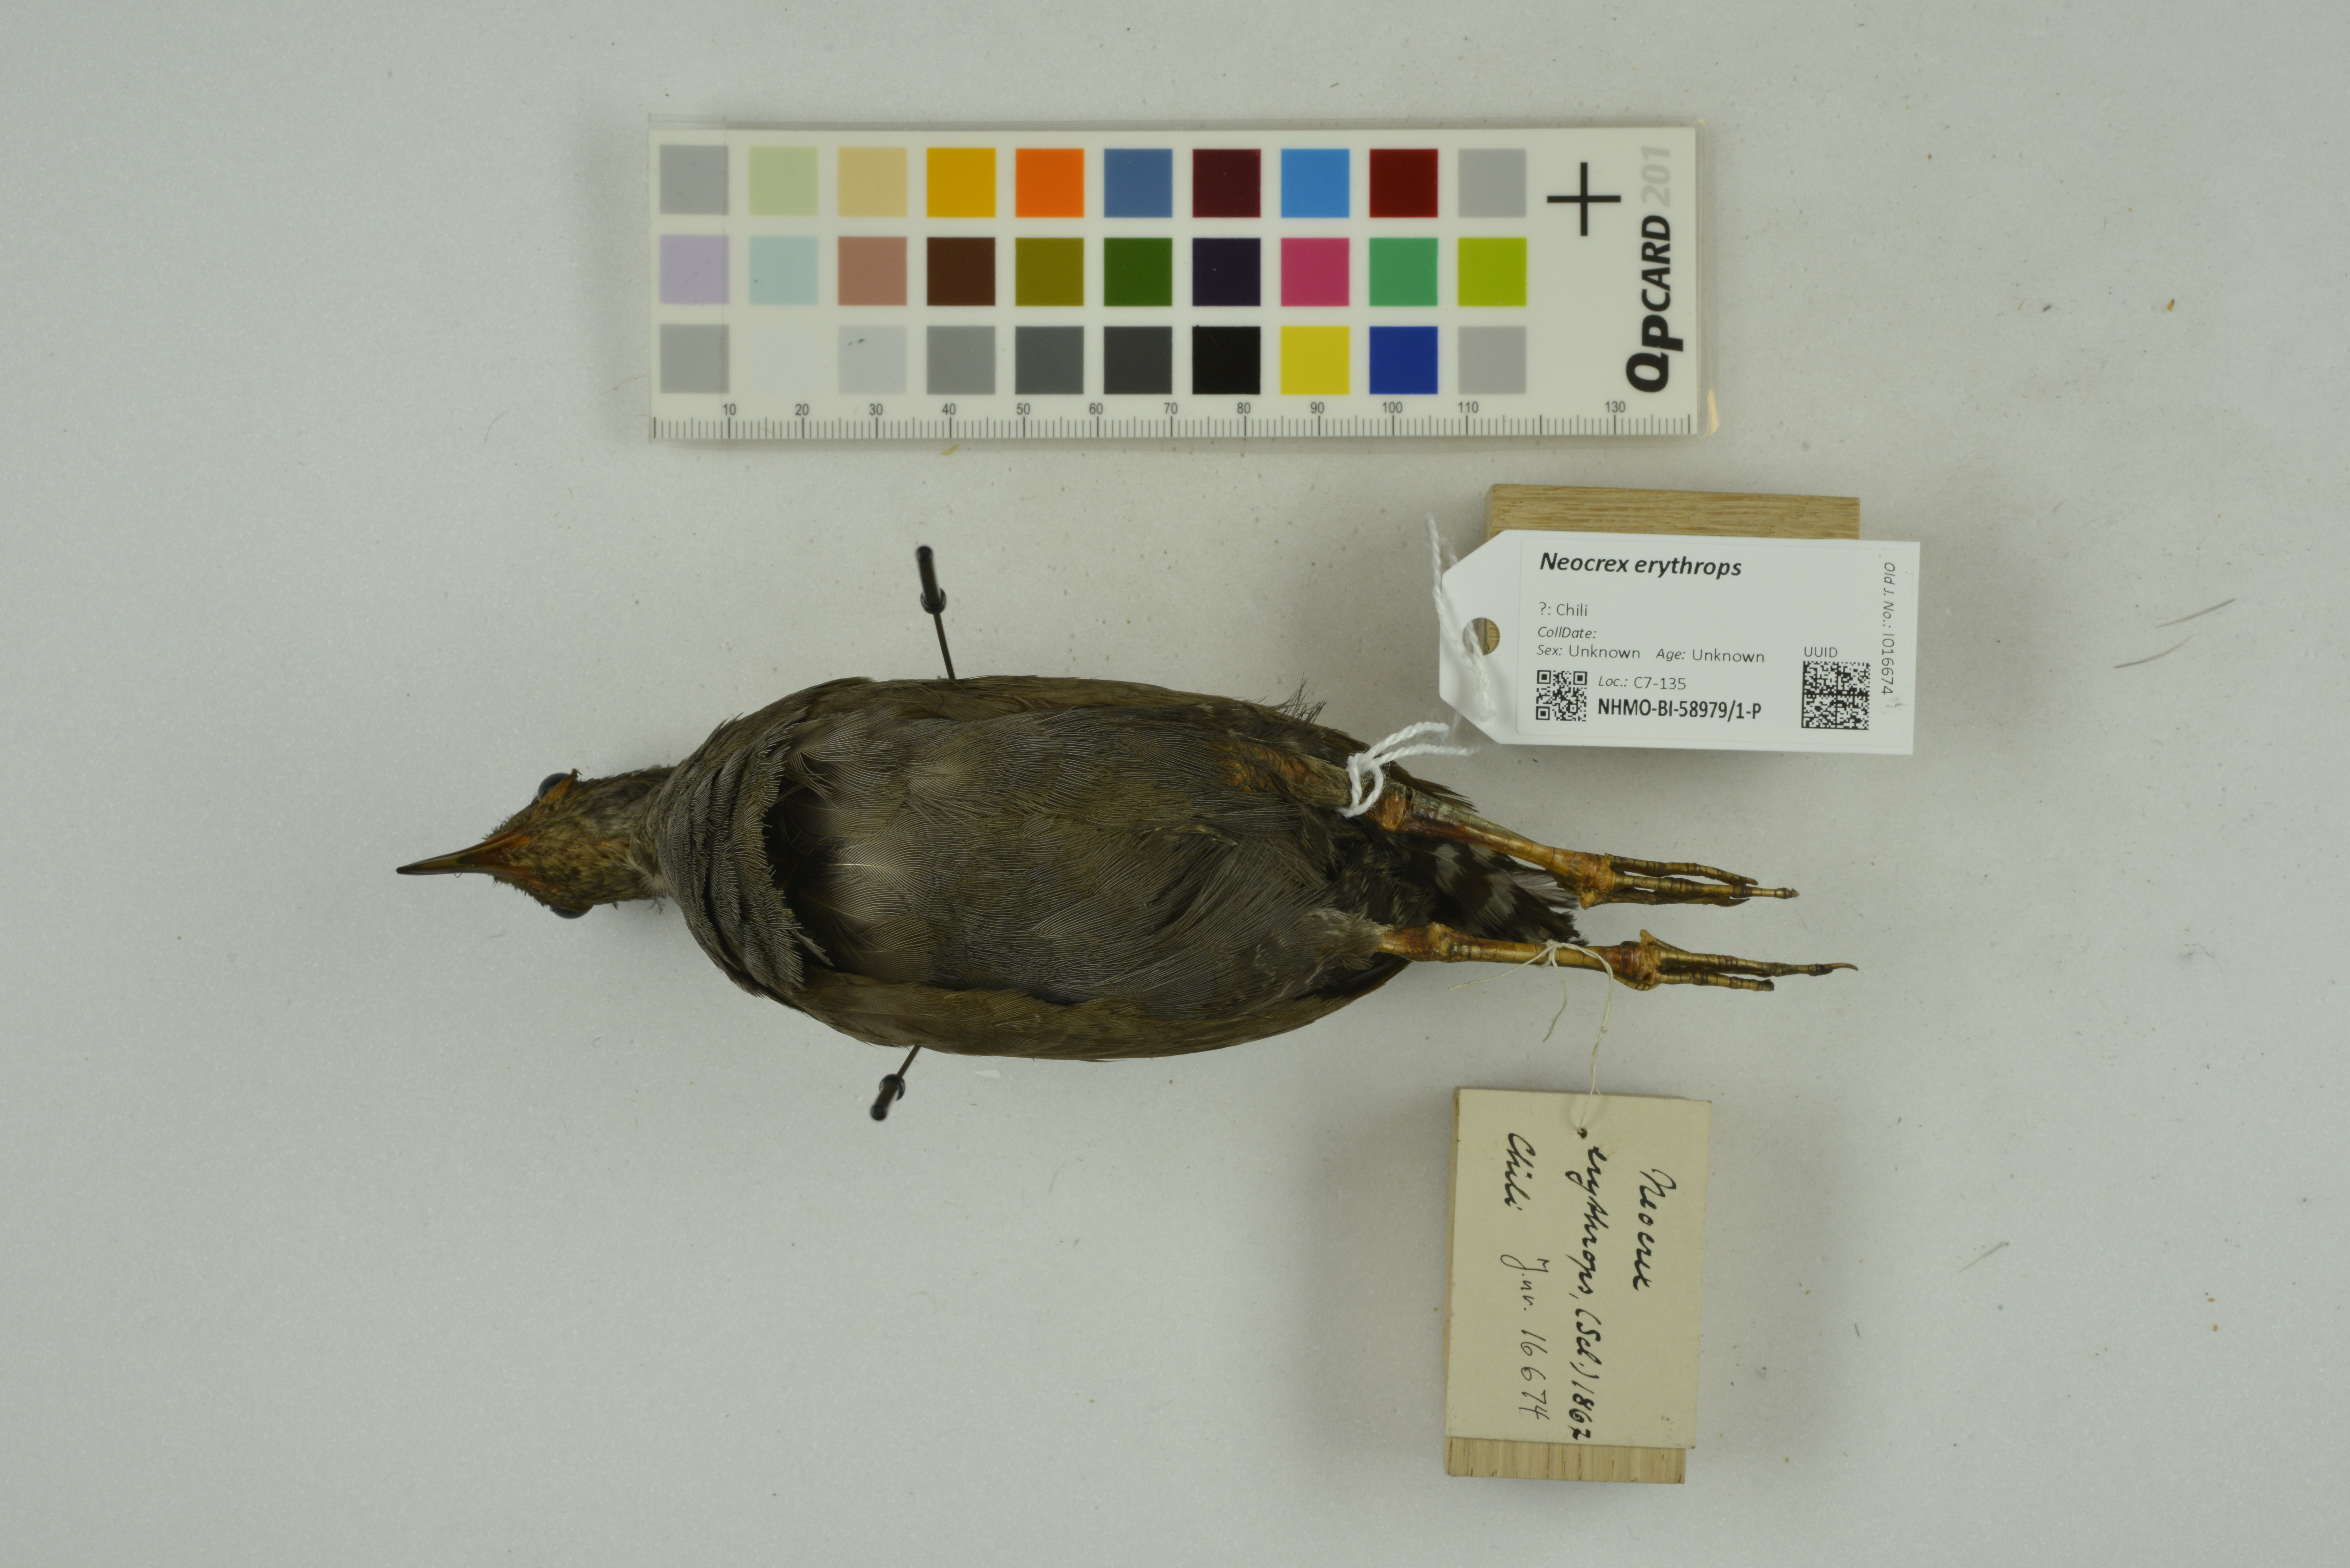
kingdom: Animalia
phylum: Chordata
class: Aves
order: Gruiformes
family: Rallidae
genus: Neocrex
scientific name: Neocrex erythrops
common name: Paint-billed crake
